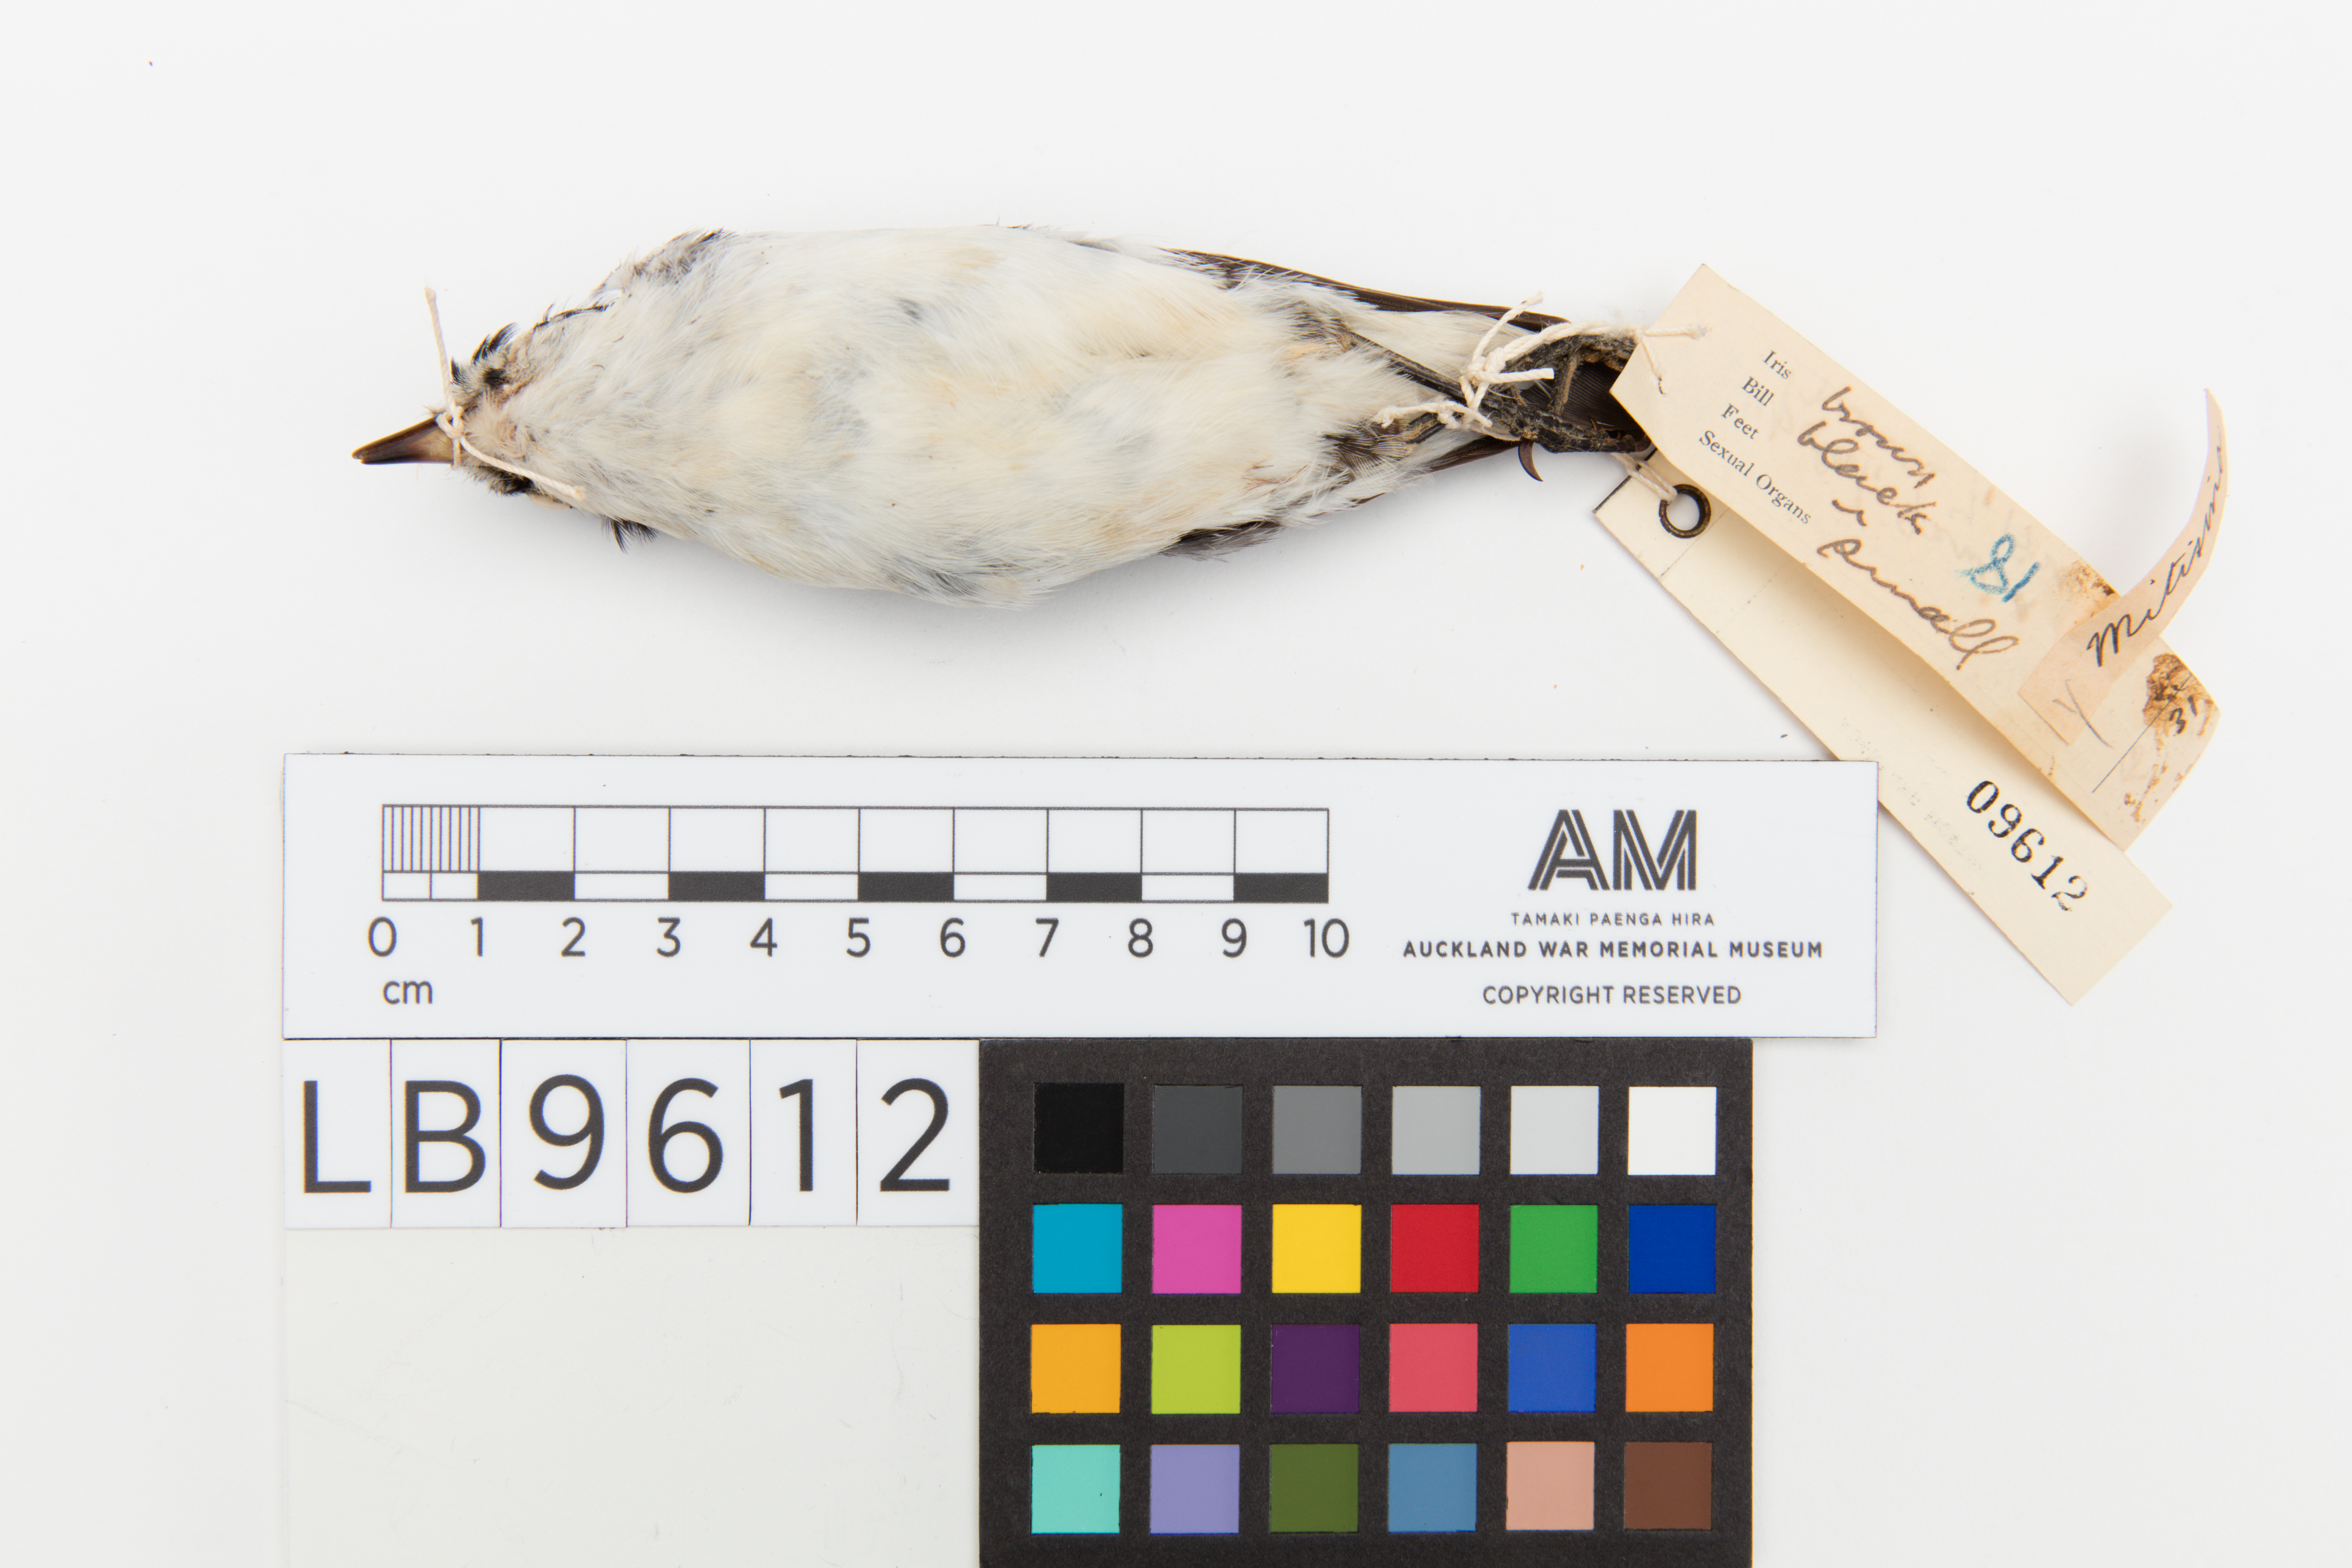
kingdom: Animalia
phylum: Chordata
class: Aves
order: Passeriformes
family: Campephagidae
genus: Lalage
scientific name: Lalage maculosa
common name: Polynesian triller
